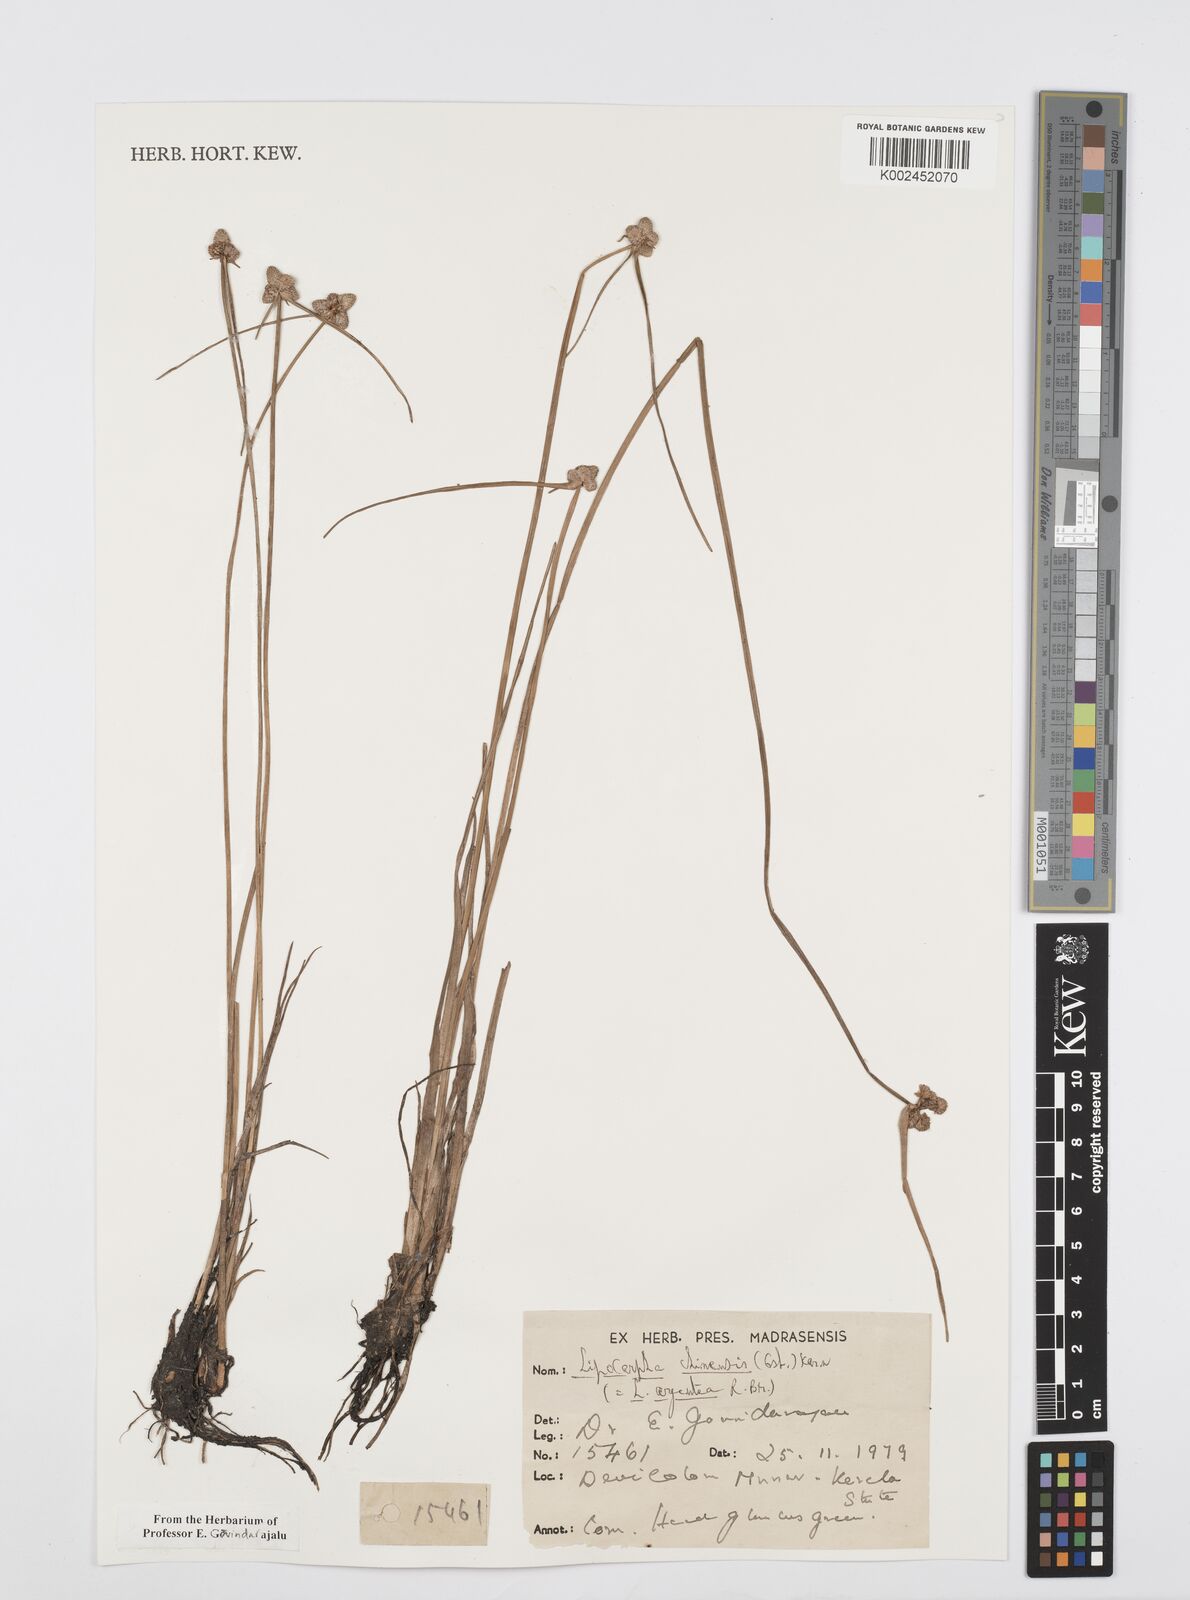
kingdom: Plantae
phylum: Tracheophyta
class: Liliopsida
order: Poales
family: Cyperaceae
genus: Cyperus
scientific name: Cyperus
